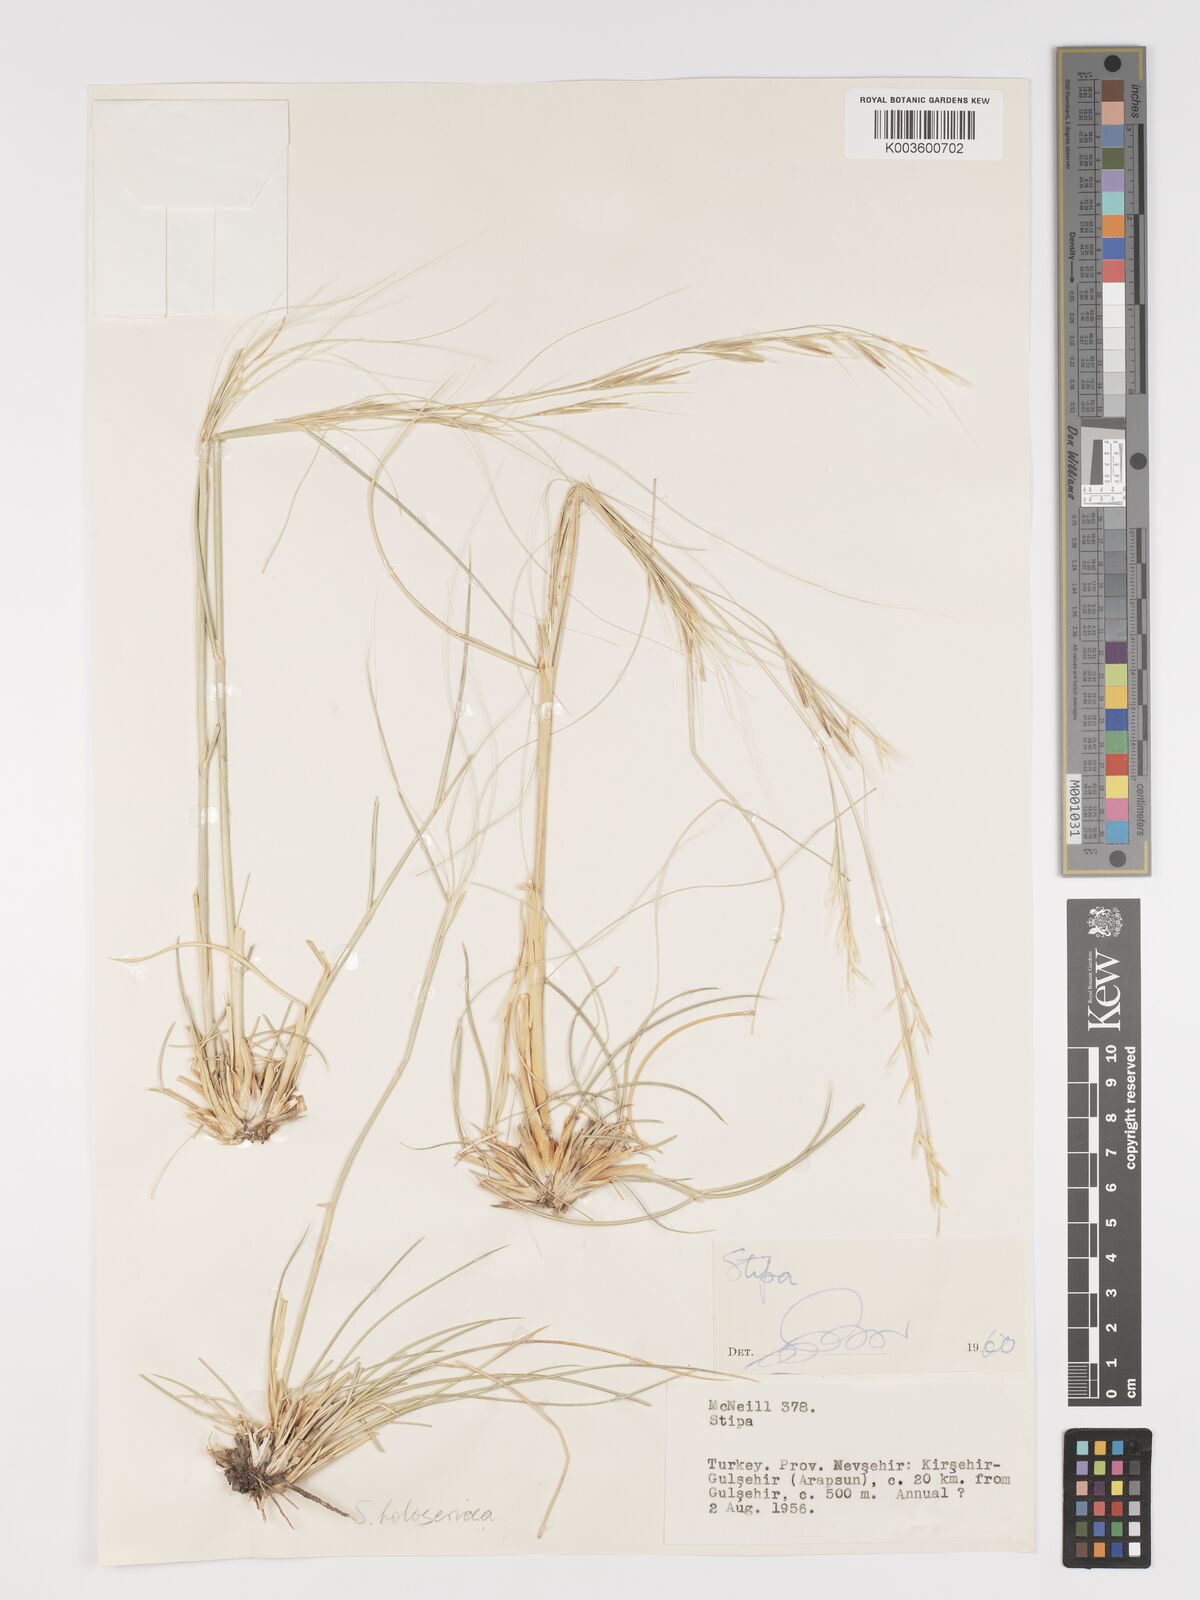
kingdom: Plantae
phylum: Tracheophyta
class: Liliopsida
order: Poales
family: Poaceae
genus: Stipa
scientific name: Stipa holosericea
